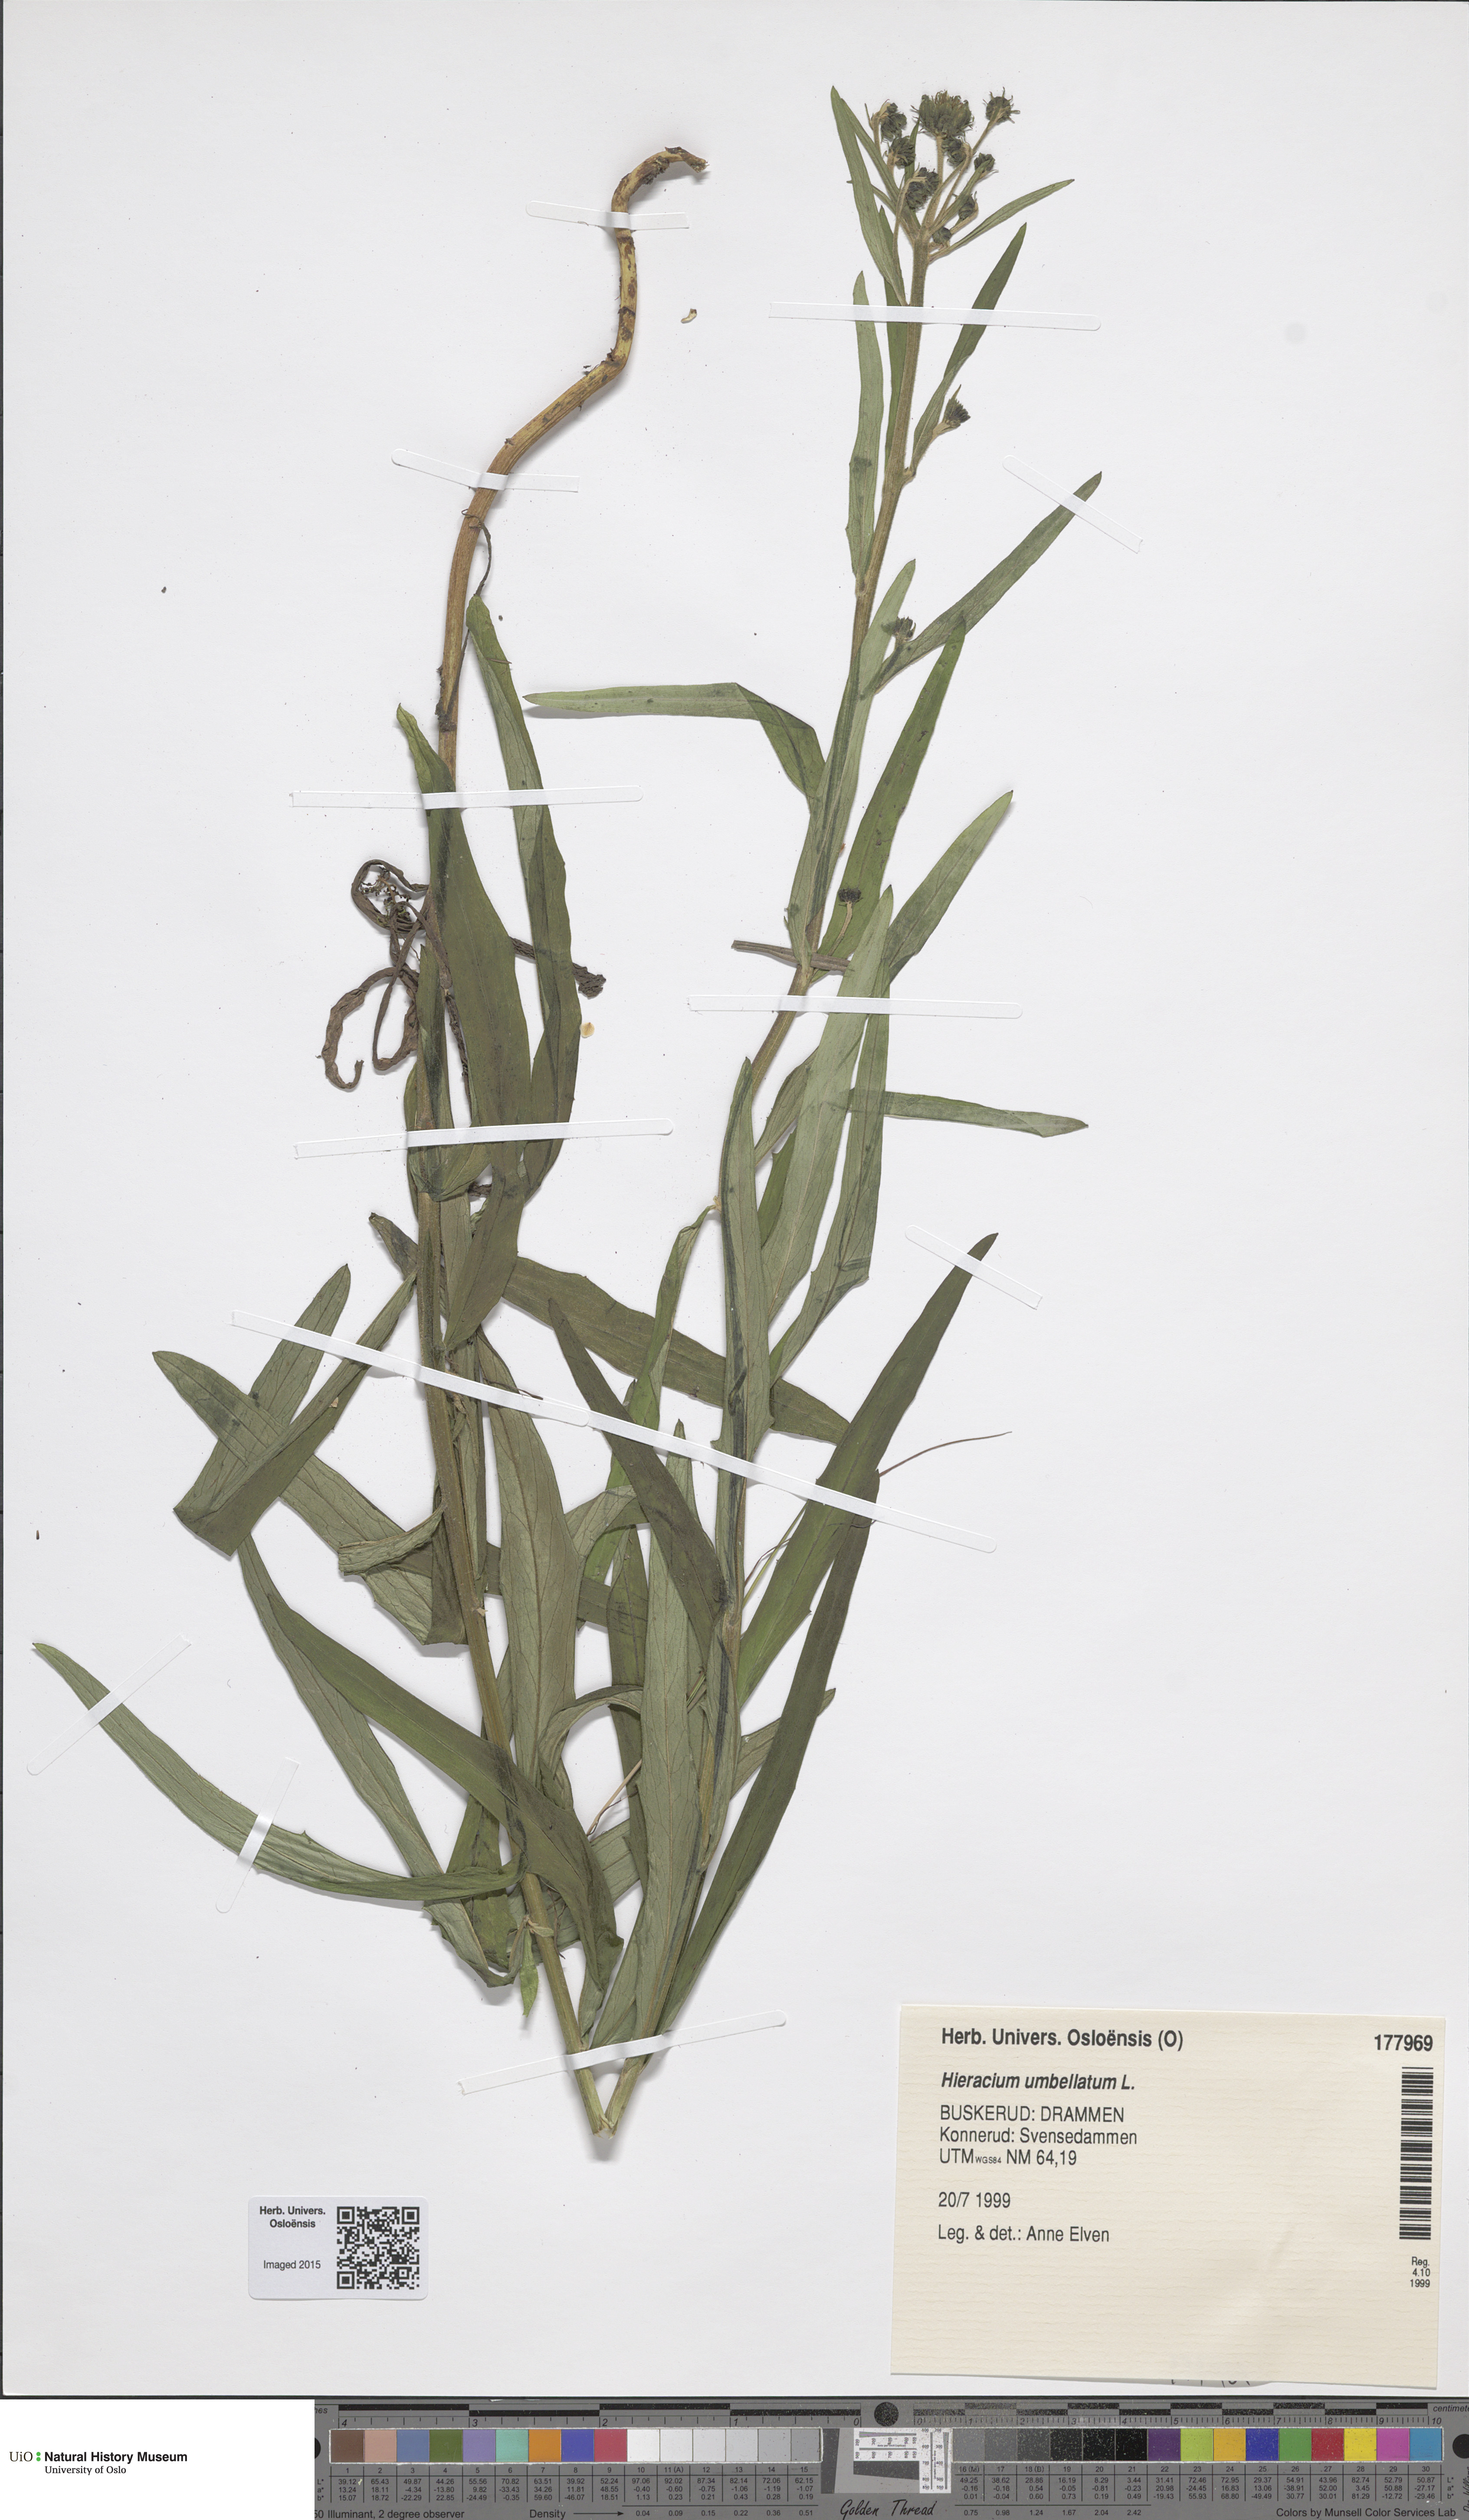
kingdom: Plantae
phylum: Tracheophyta
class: Magnoliopsida
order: Asterales
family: Asteraceae
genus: Hieracium
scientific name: Hieracium umbellatum
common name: Northern hawkweed
